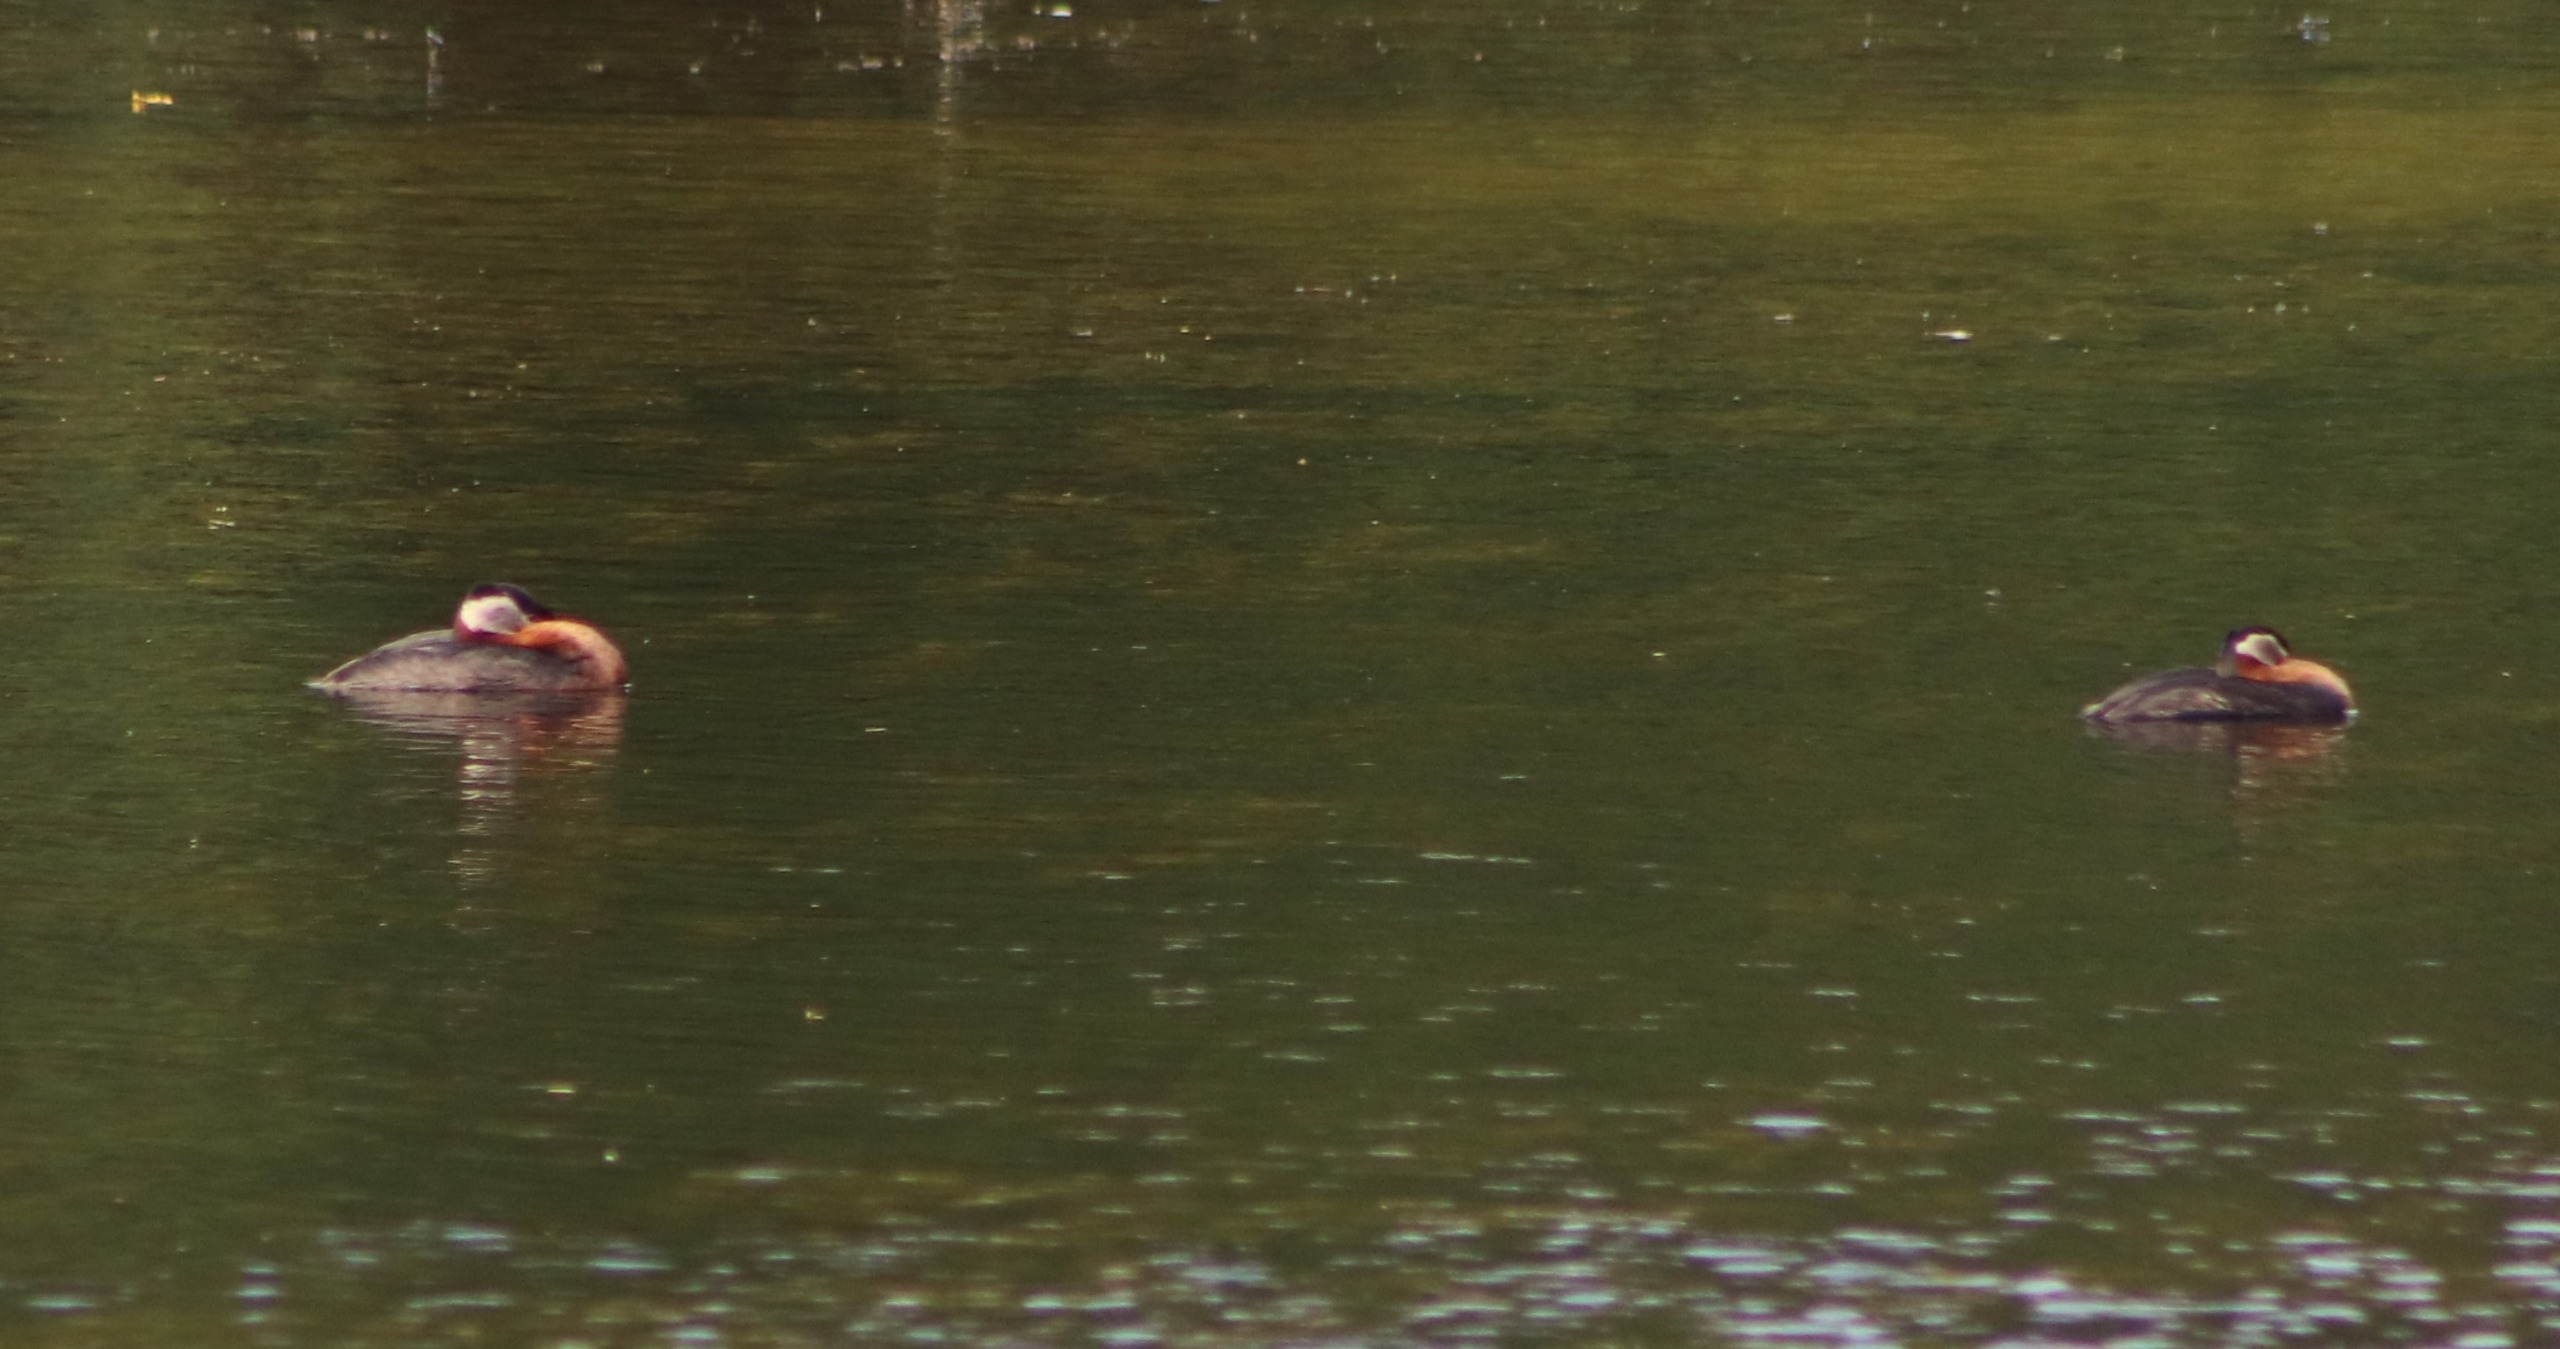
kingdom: Animalia
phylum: Chordata
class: Aves
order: Podicipediformes
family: Podicipedidae
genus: Podiceps
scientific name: Podiceps grisegena
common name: Gråstrubet lappedykker
